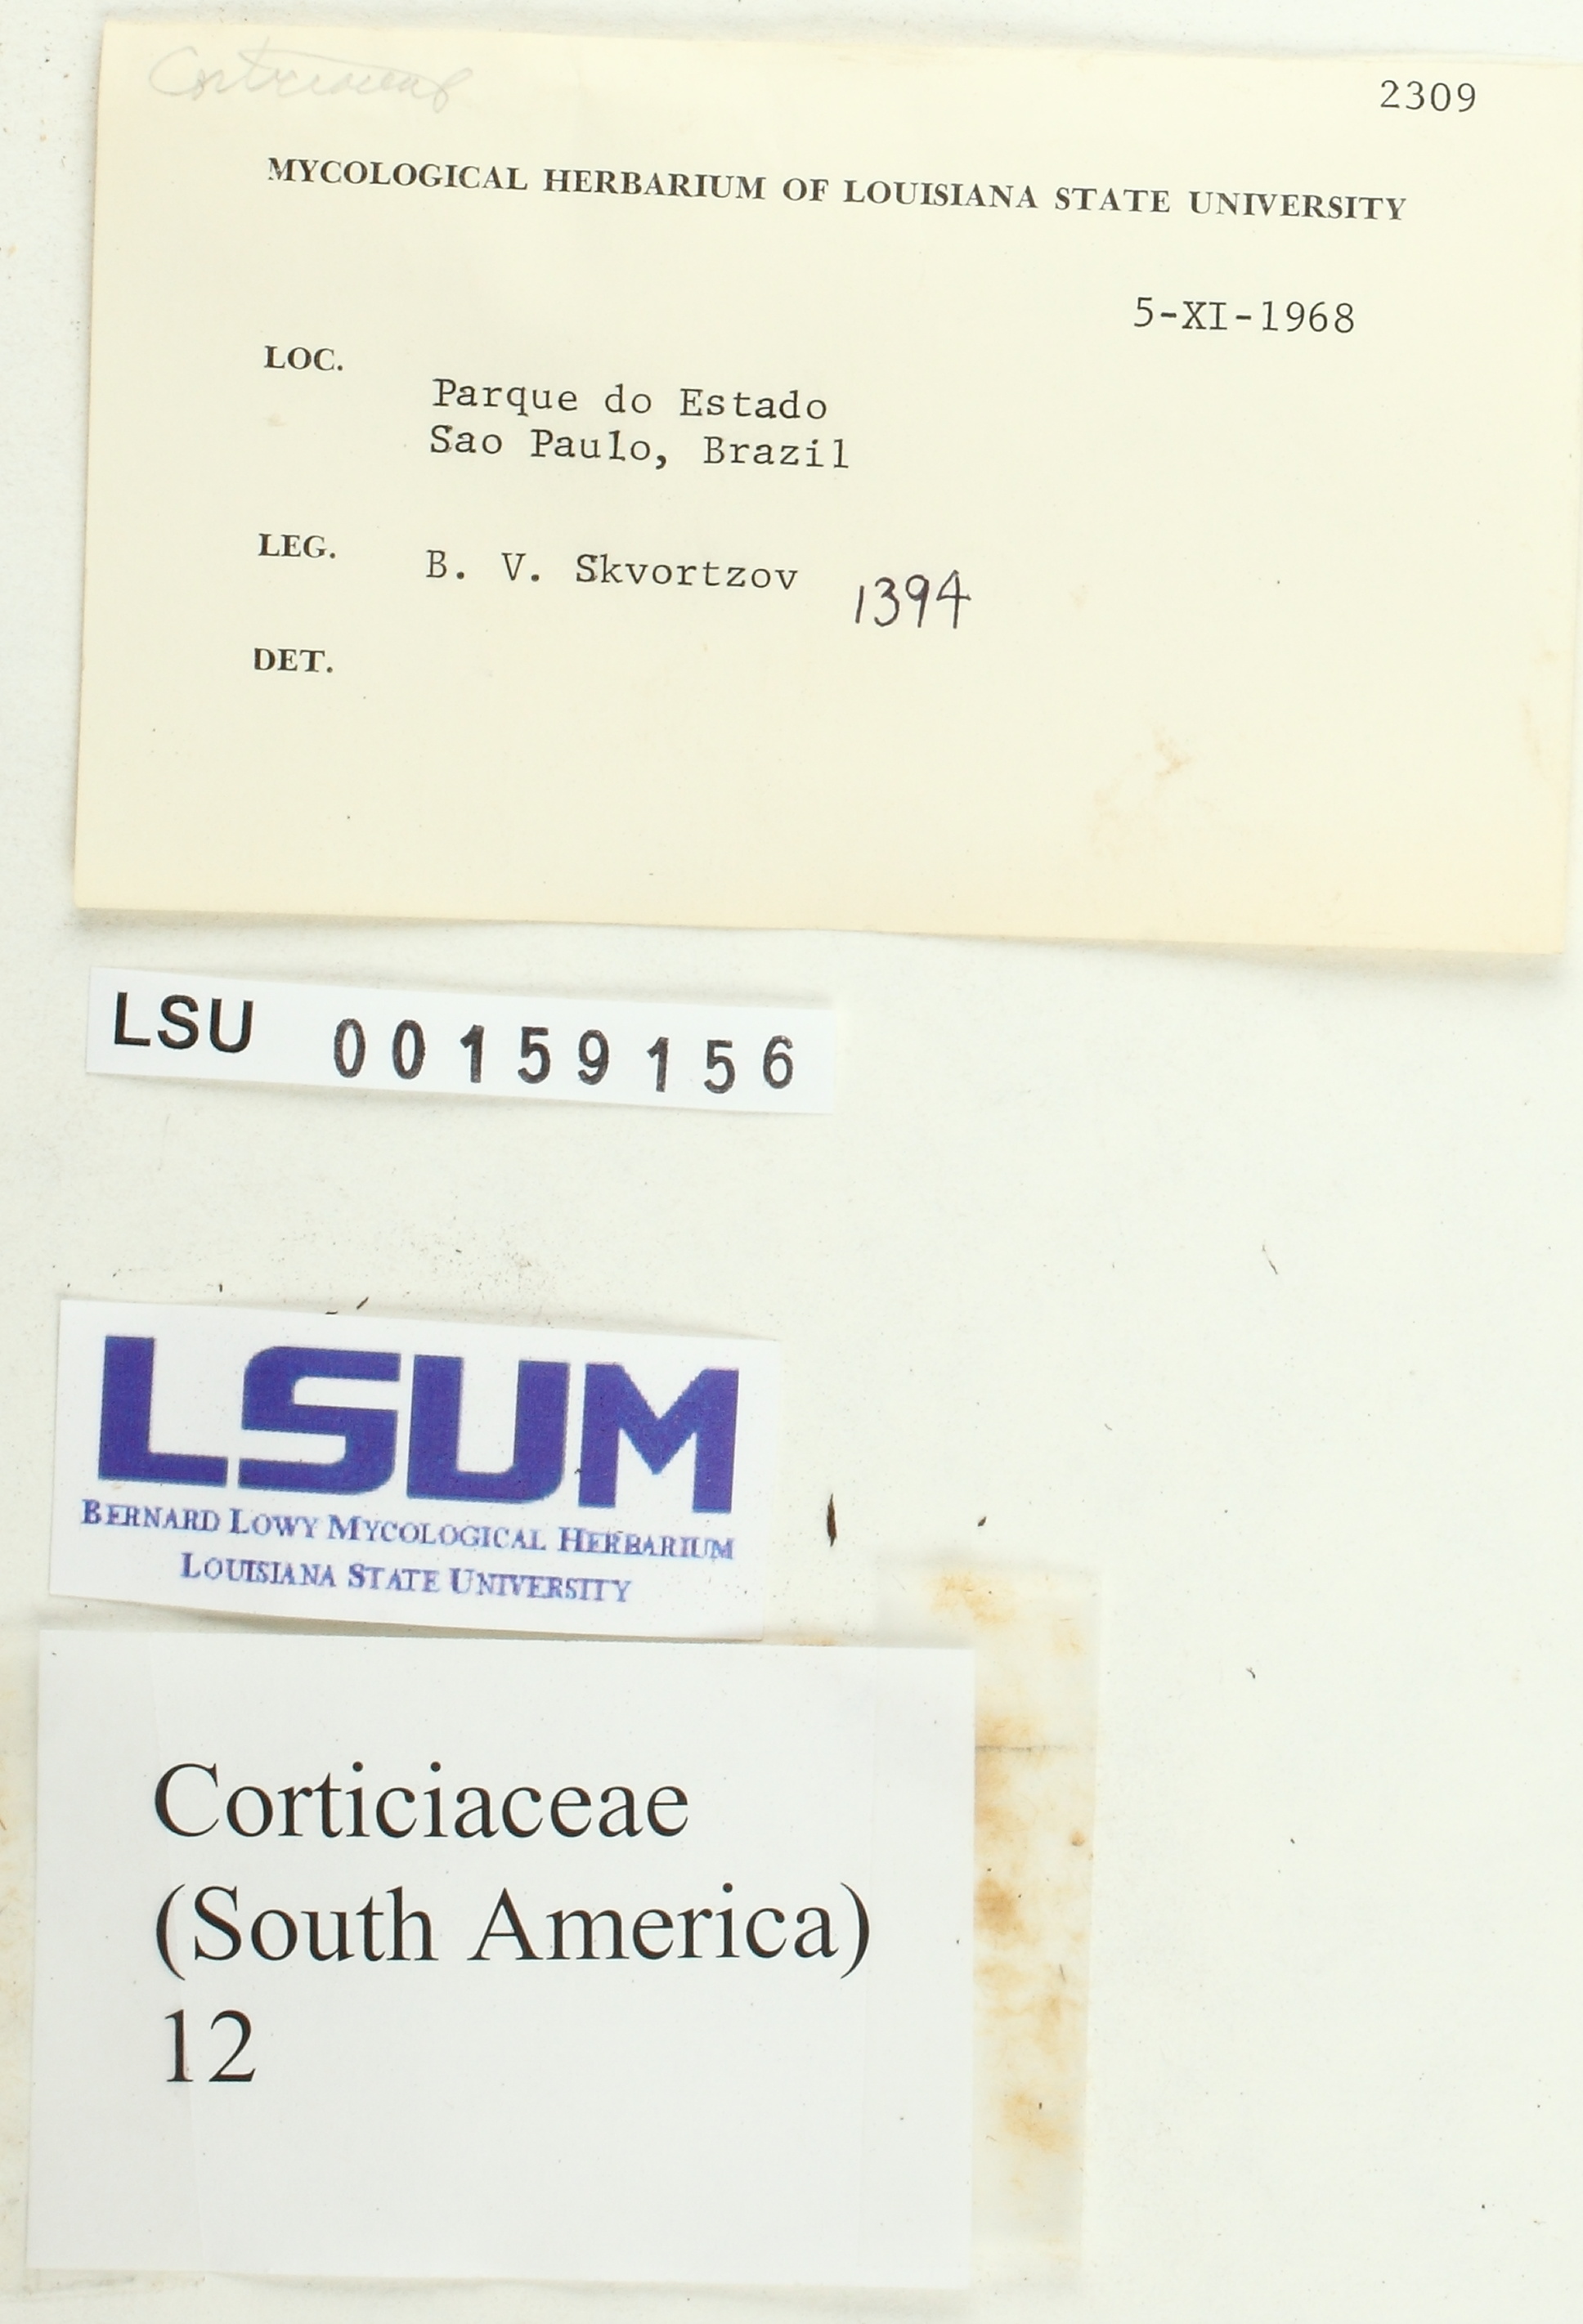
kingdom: Fungi
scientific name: Fungi
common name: Fungi
